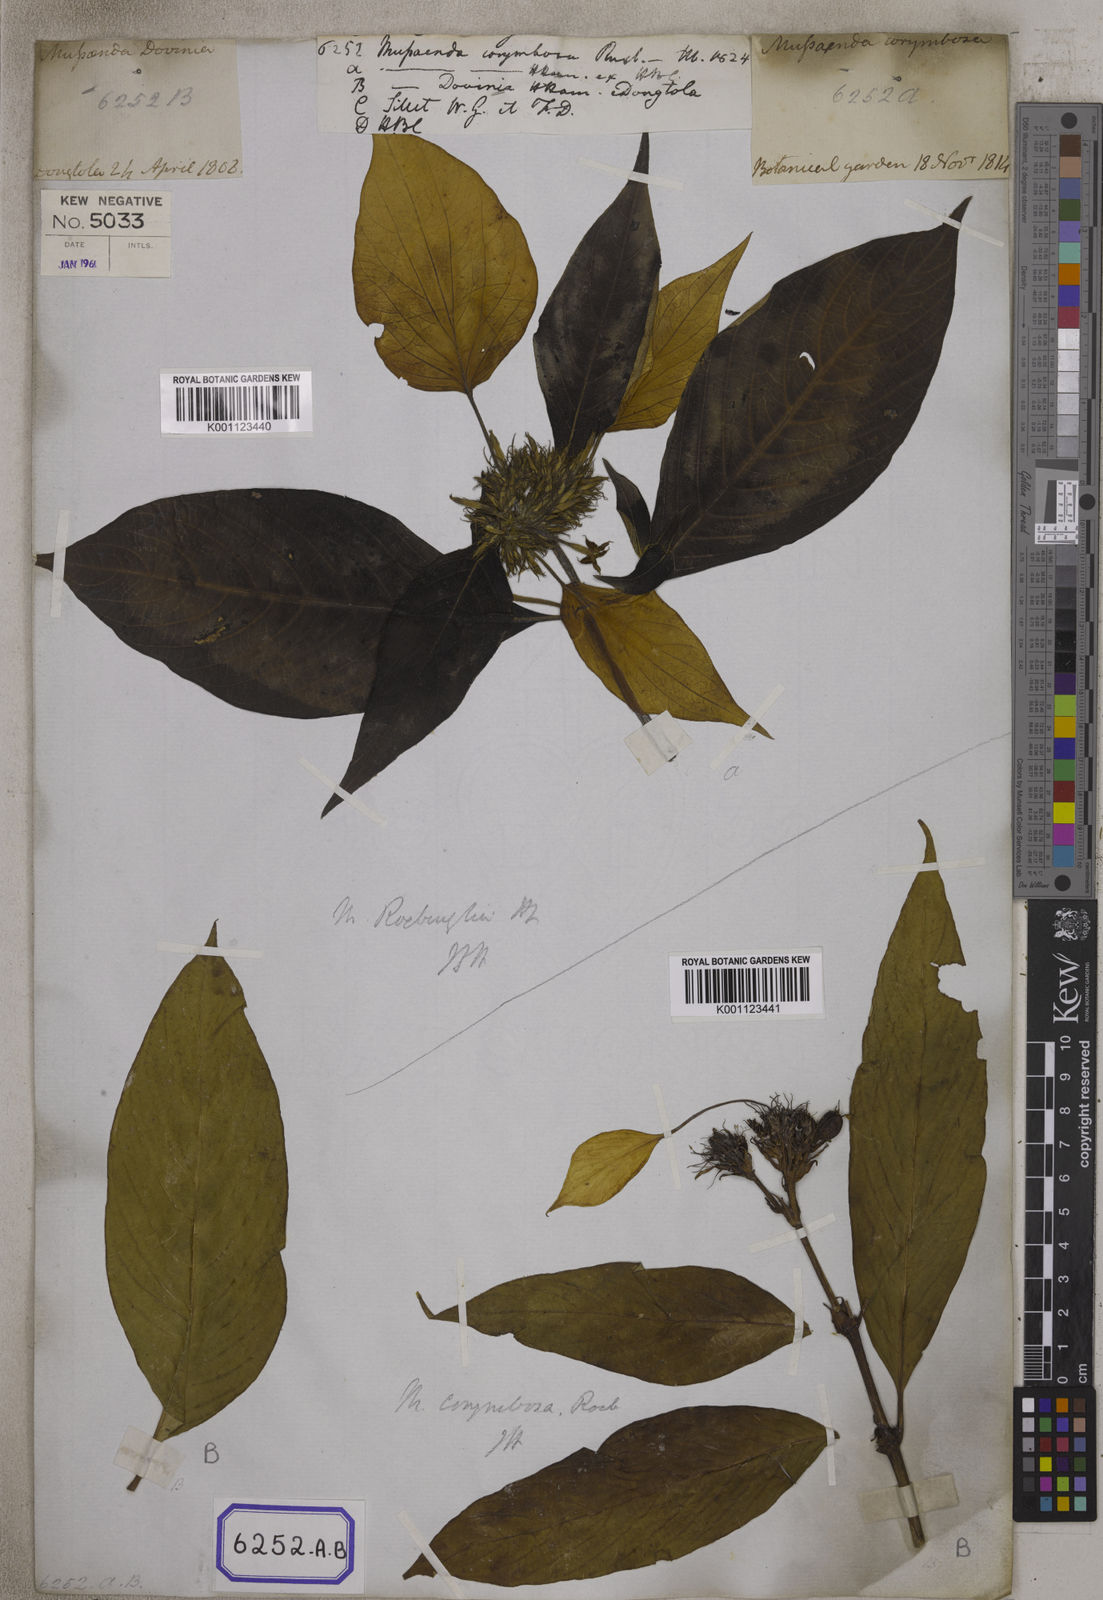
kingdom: Plantae
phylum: Tracheophyta
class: Magnoliopsida
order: Gentianales
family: Rubiaceae
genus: Mussaenda
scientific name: Mussaenda
